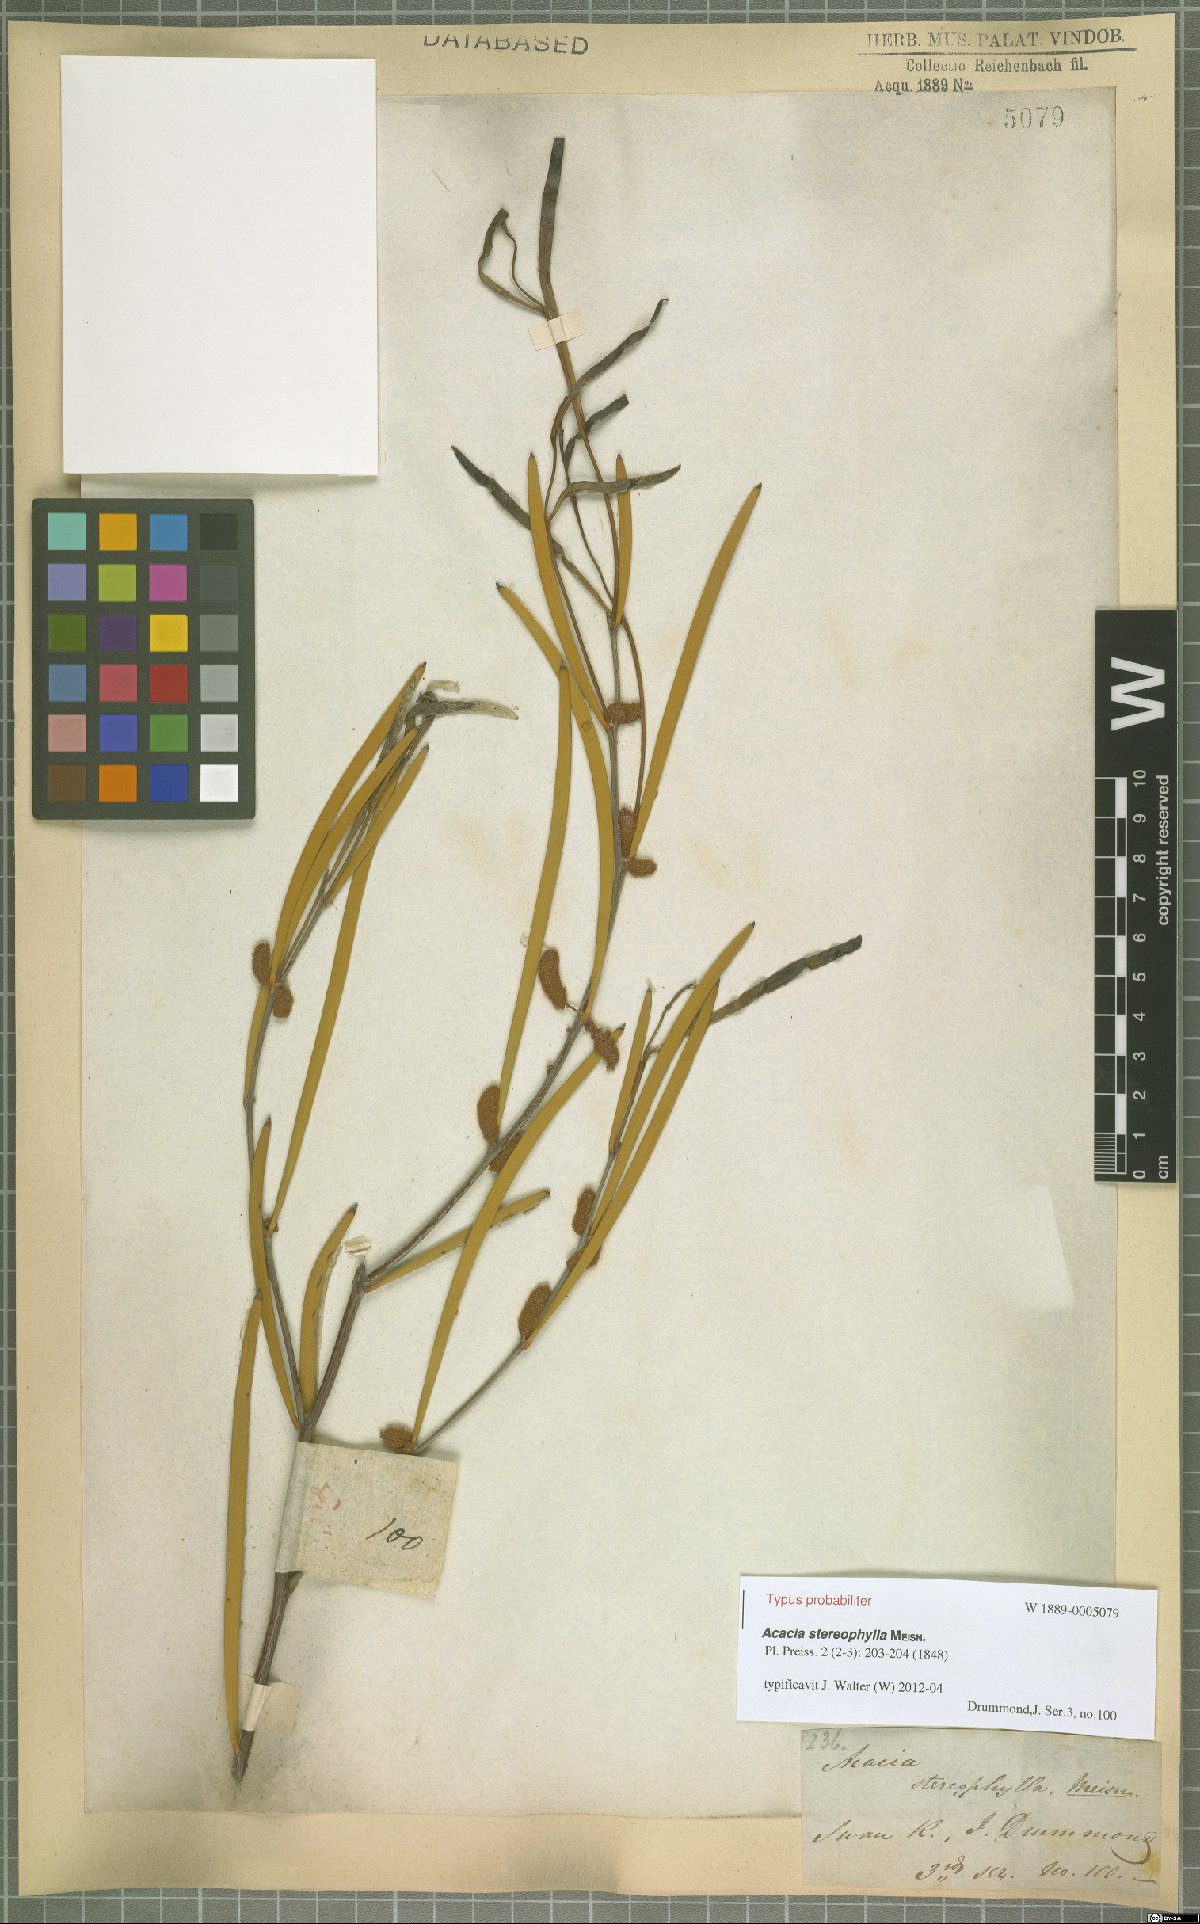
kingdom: Plantae
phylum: Tracheophyta
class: Magnoliopsida
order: Fabales
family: Fabaceae
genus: Acacia
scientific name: Acacia stereophylla
